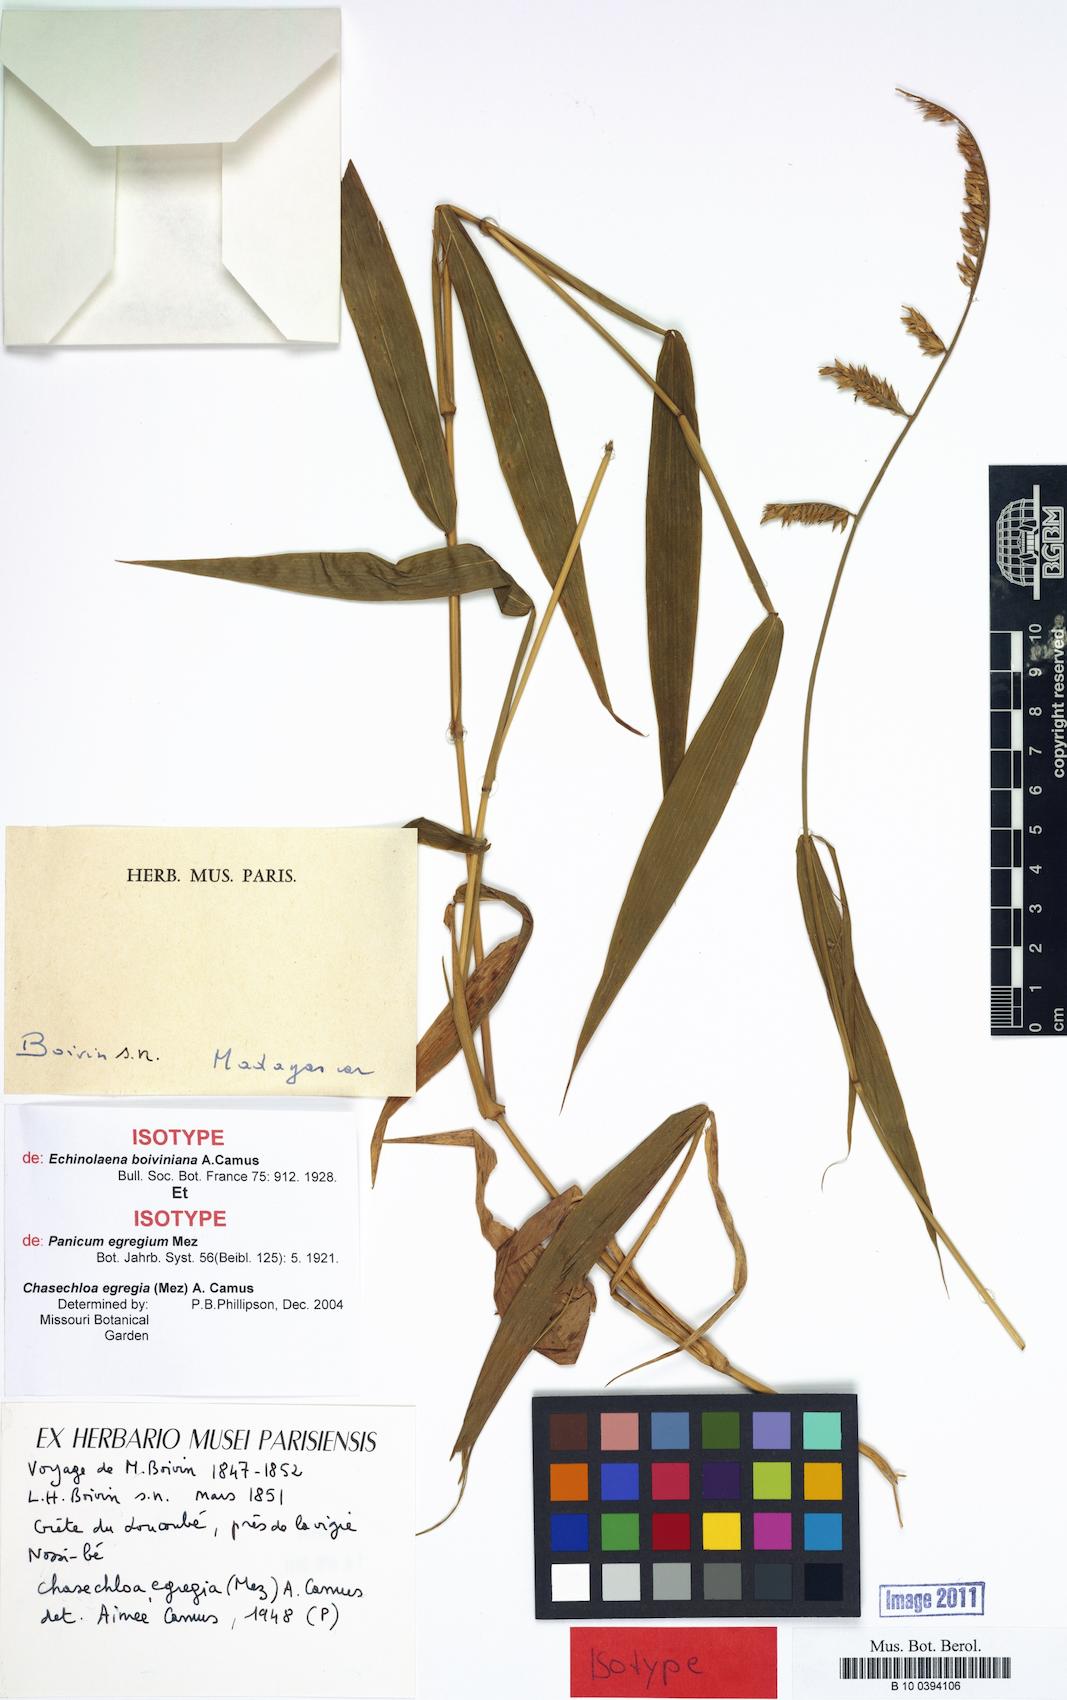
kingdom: Plantae
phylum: Tracheophyta
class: Liliopsida
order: Poales
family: Poaceae
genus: Chasechloa
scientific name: Chasechloa egregia
